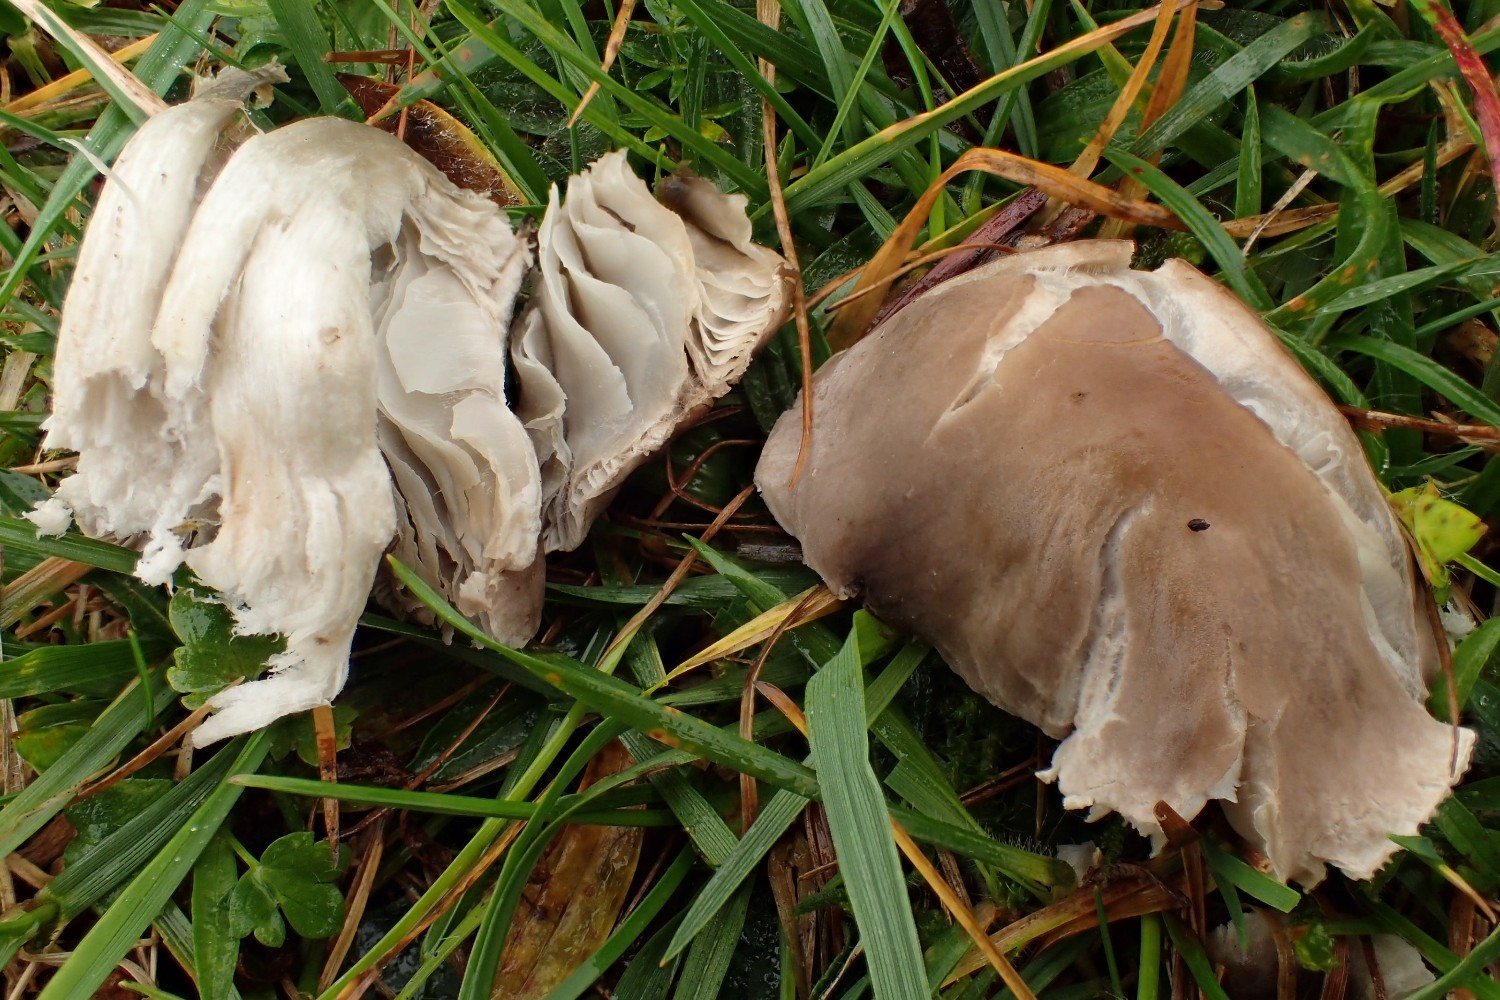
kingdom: Fungi
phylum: Basidiomycota
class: Agaricomycetes
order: Agaricales
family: Tricholomataceae
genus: Dermoloma
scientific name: Dermoloma cuneifolium
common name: eng-nonnehat
